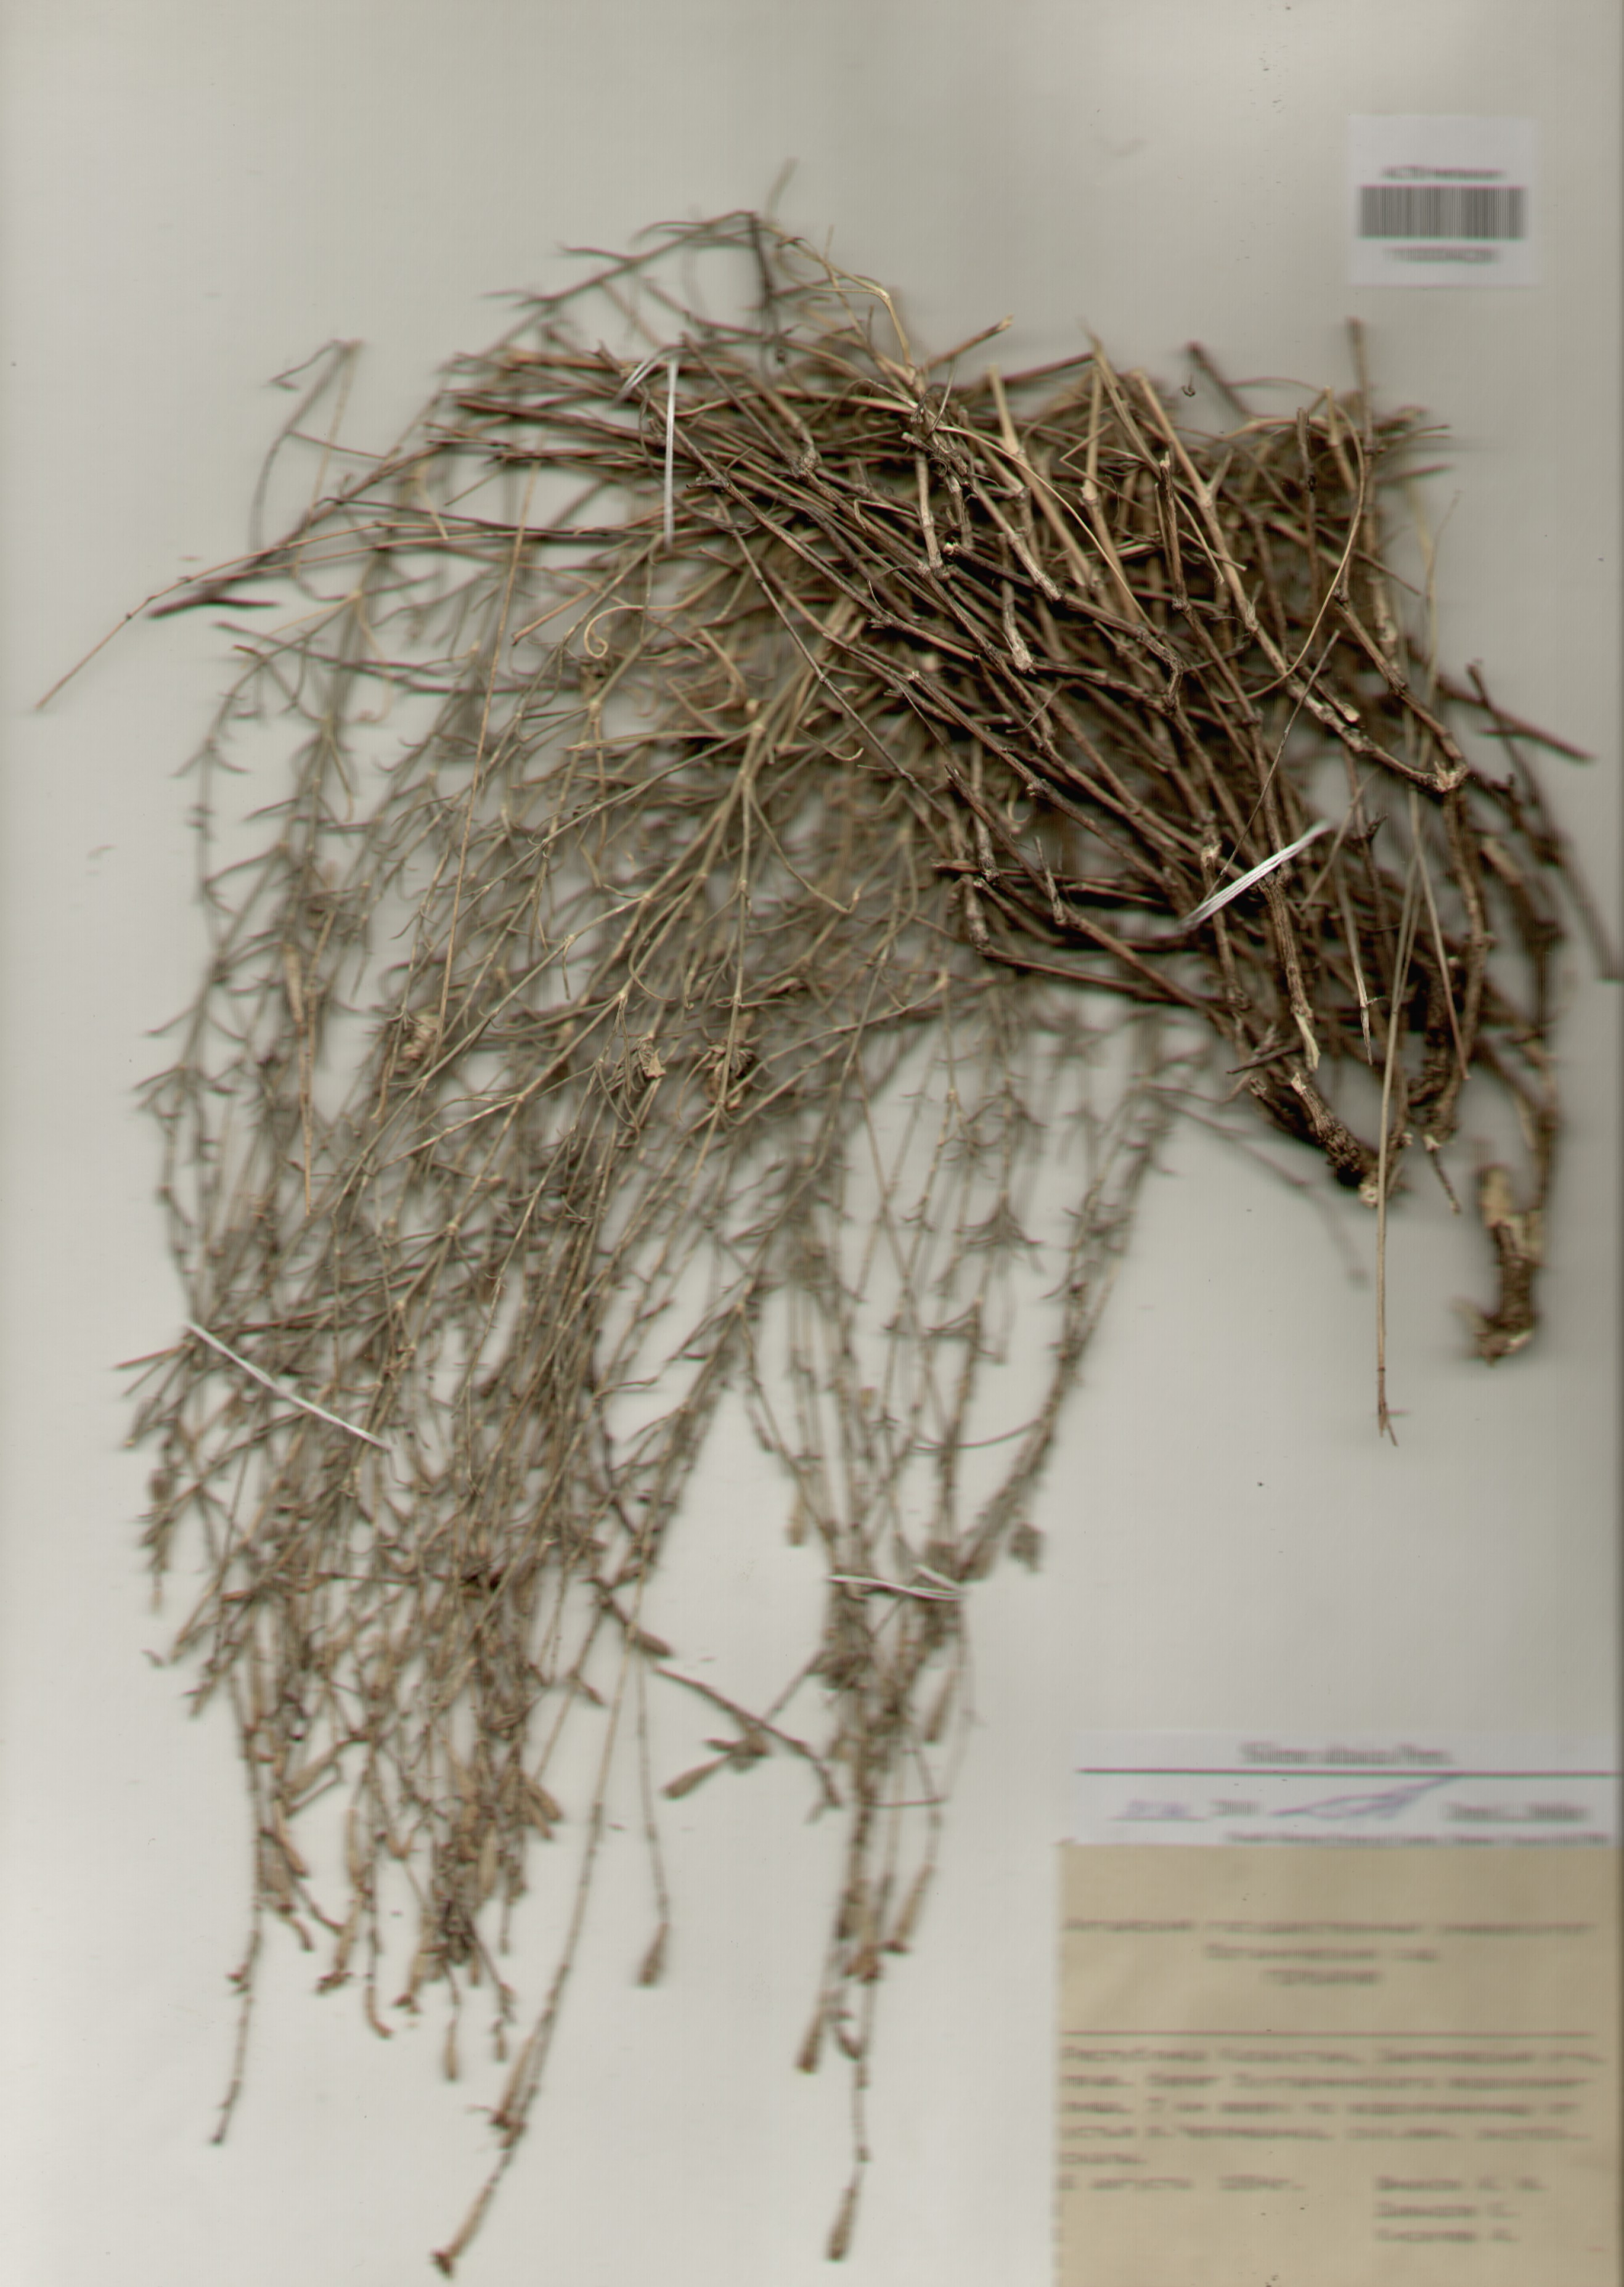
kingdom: Plantae
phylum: Tracheophyta
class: Magnoliopsida
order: Caryophyllales
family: Caryophyllaceae
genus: Silene
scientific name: Silene altaica
